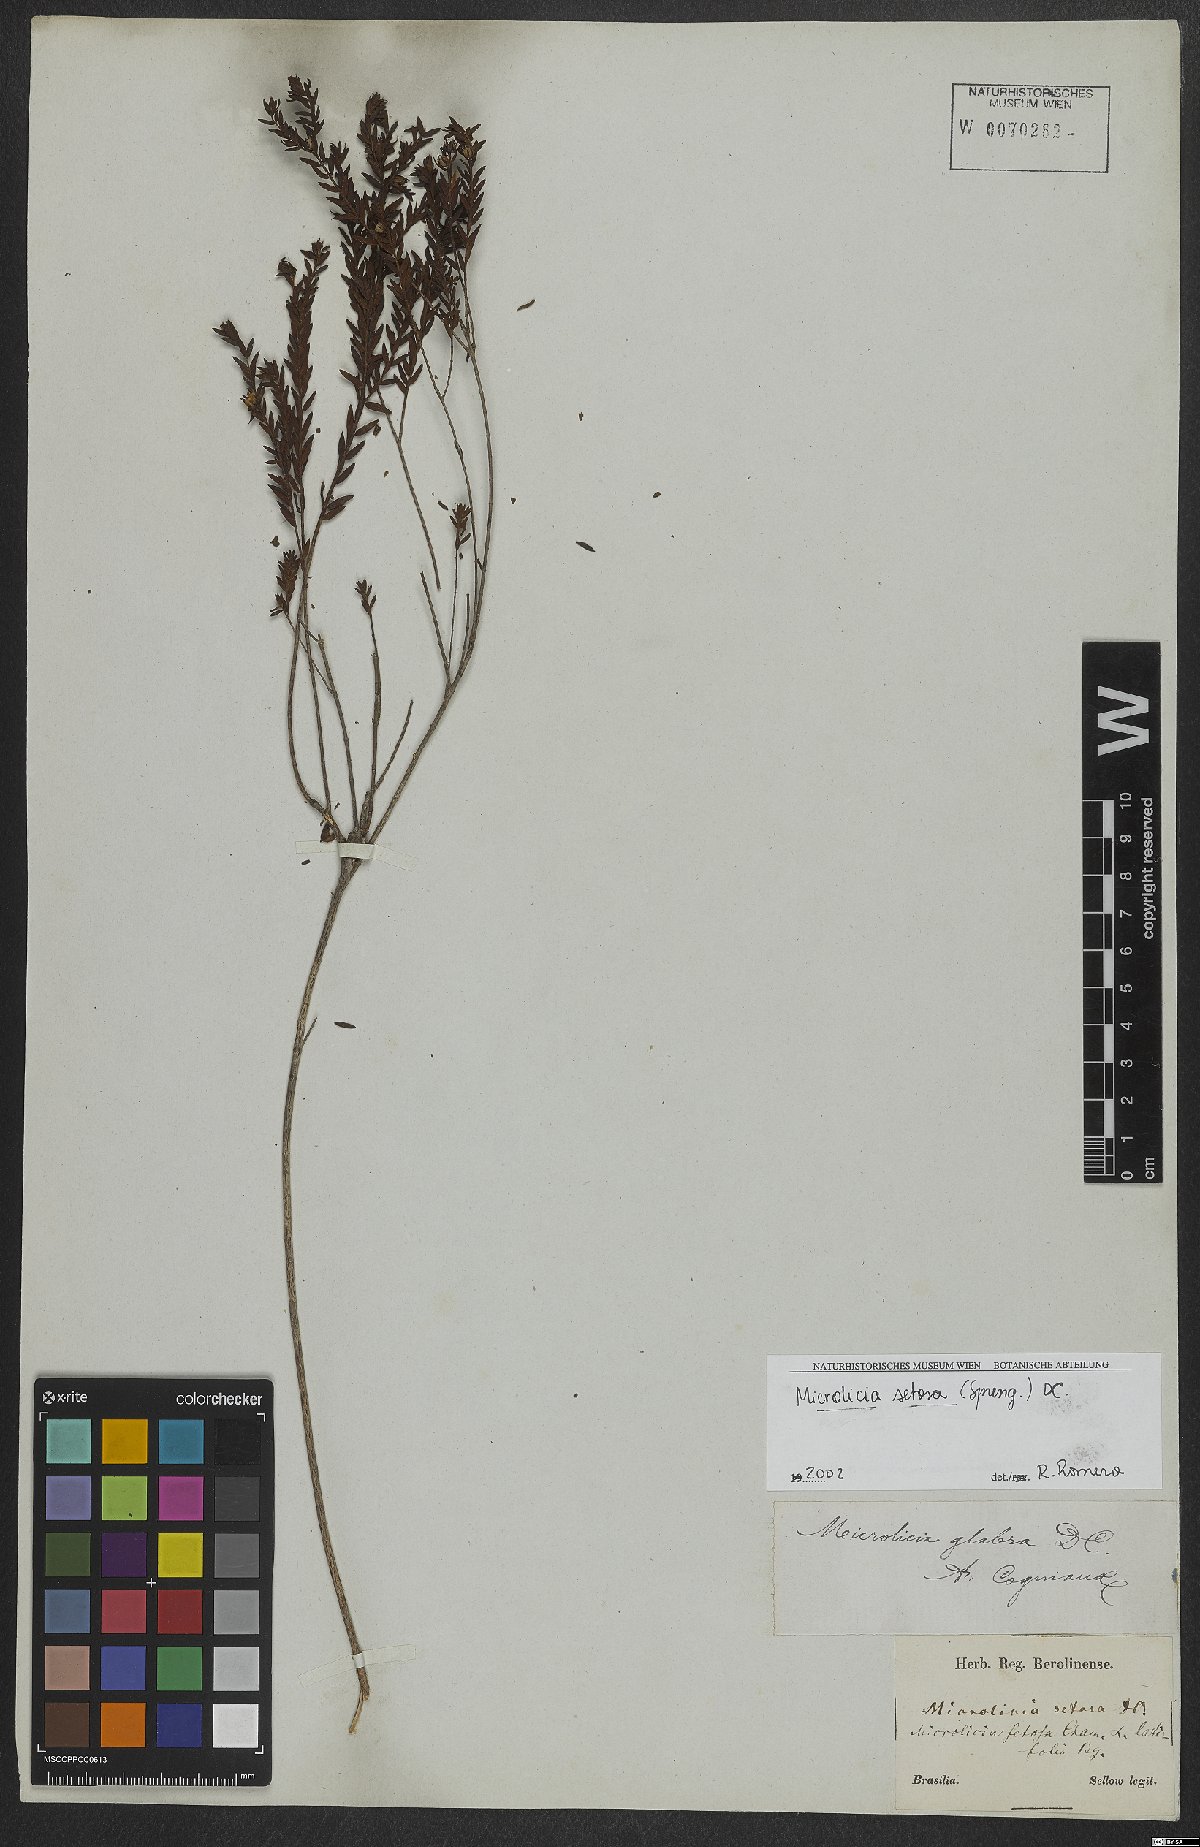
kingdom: Plantae
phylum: Tracheophyta
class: Magnoliopsida
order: Myrtales
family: Melastomataceae
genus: Microlicia
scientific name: Microlicia setosa
